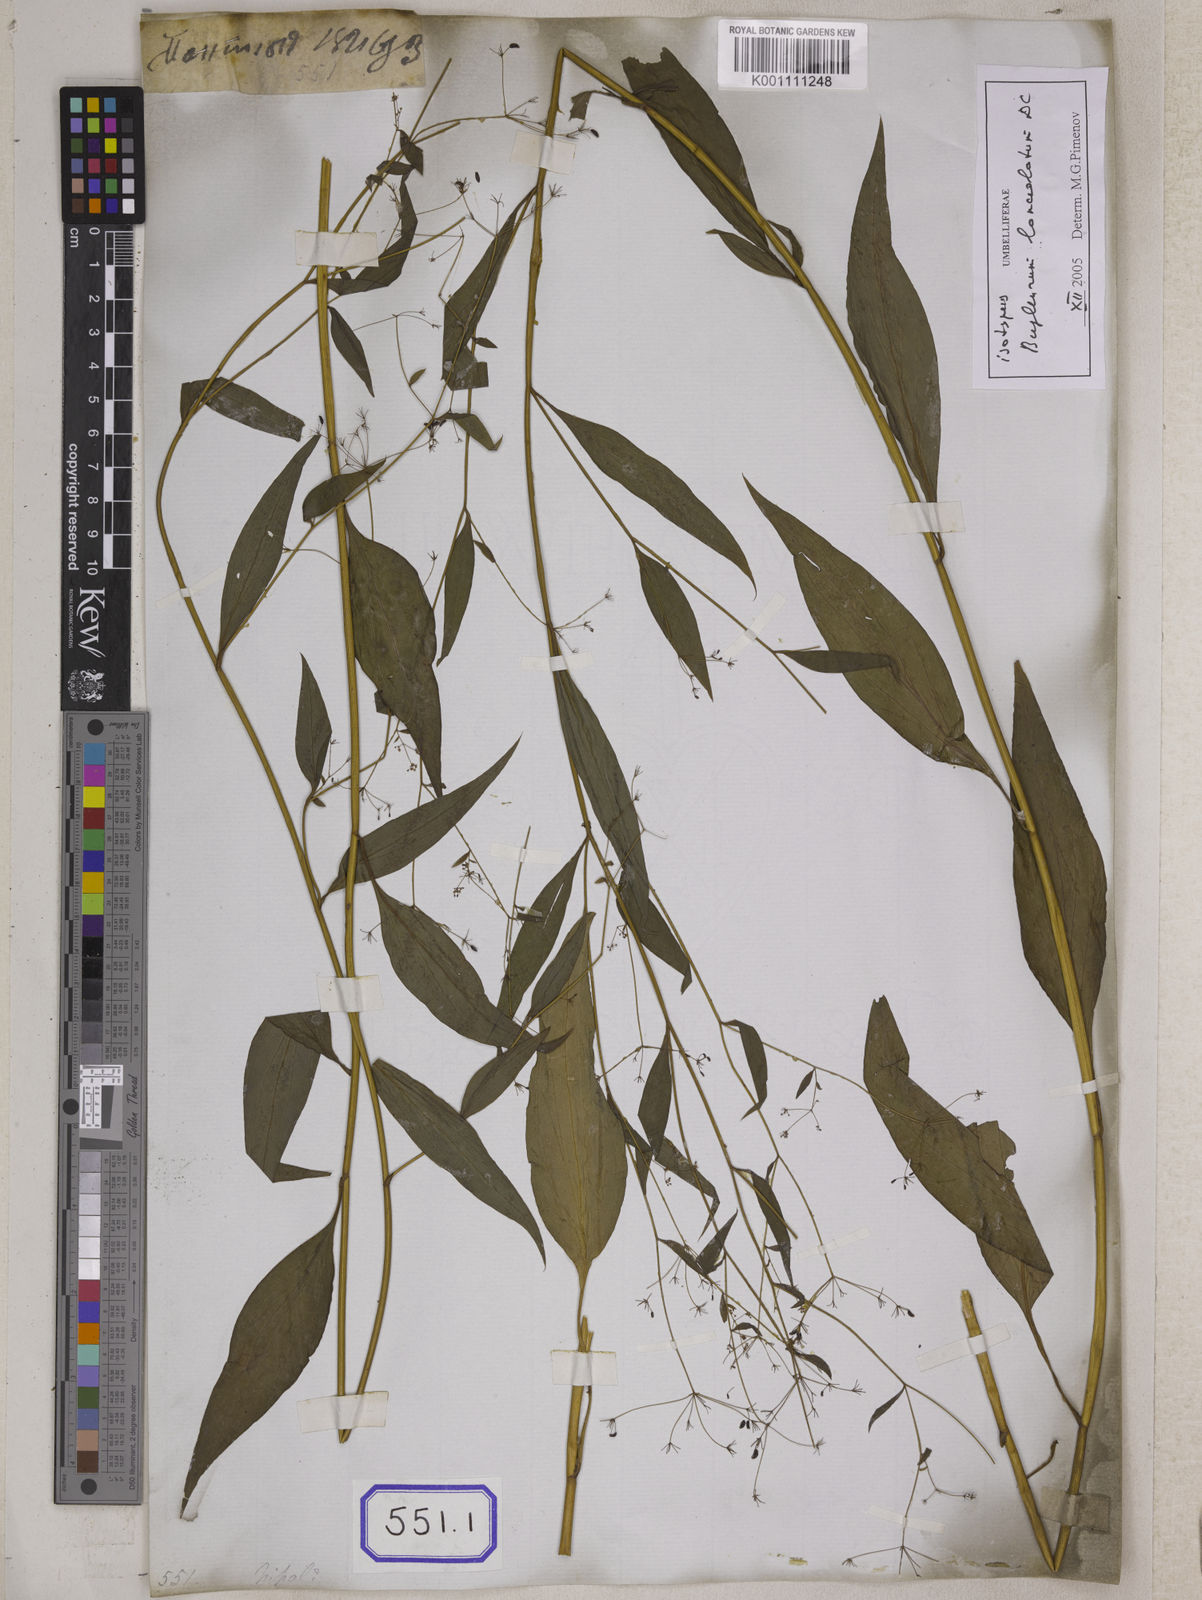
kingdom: Plantae
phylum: Tracheophyta
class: Magnoliopsida
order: Apiales
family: Apiaceae
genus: Bupleurum
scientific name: Bupleurum
